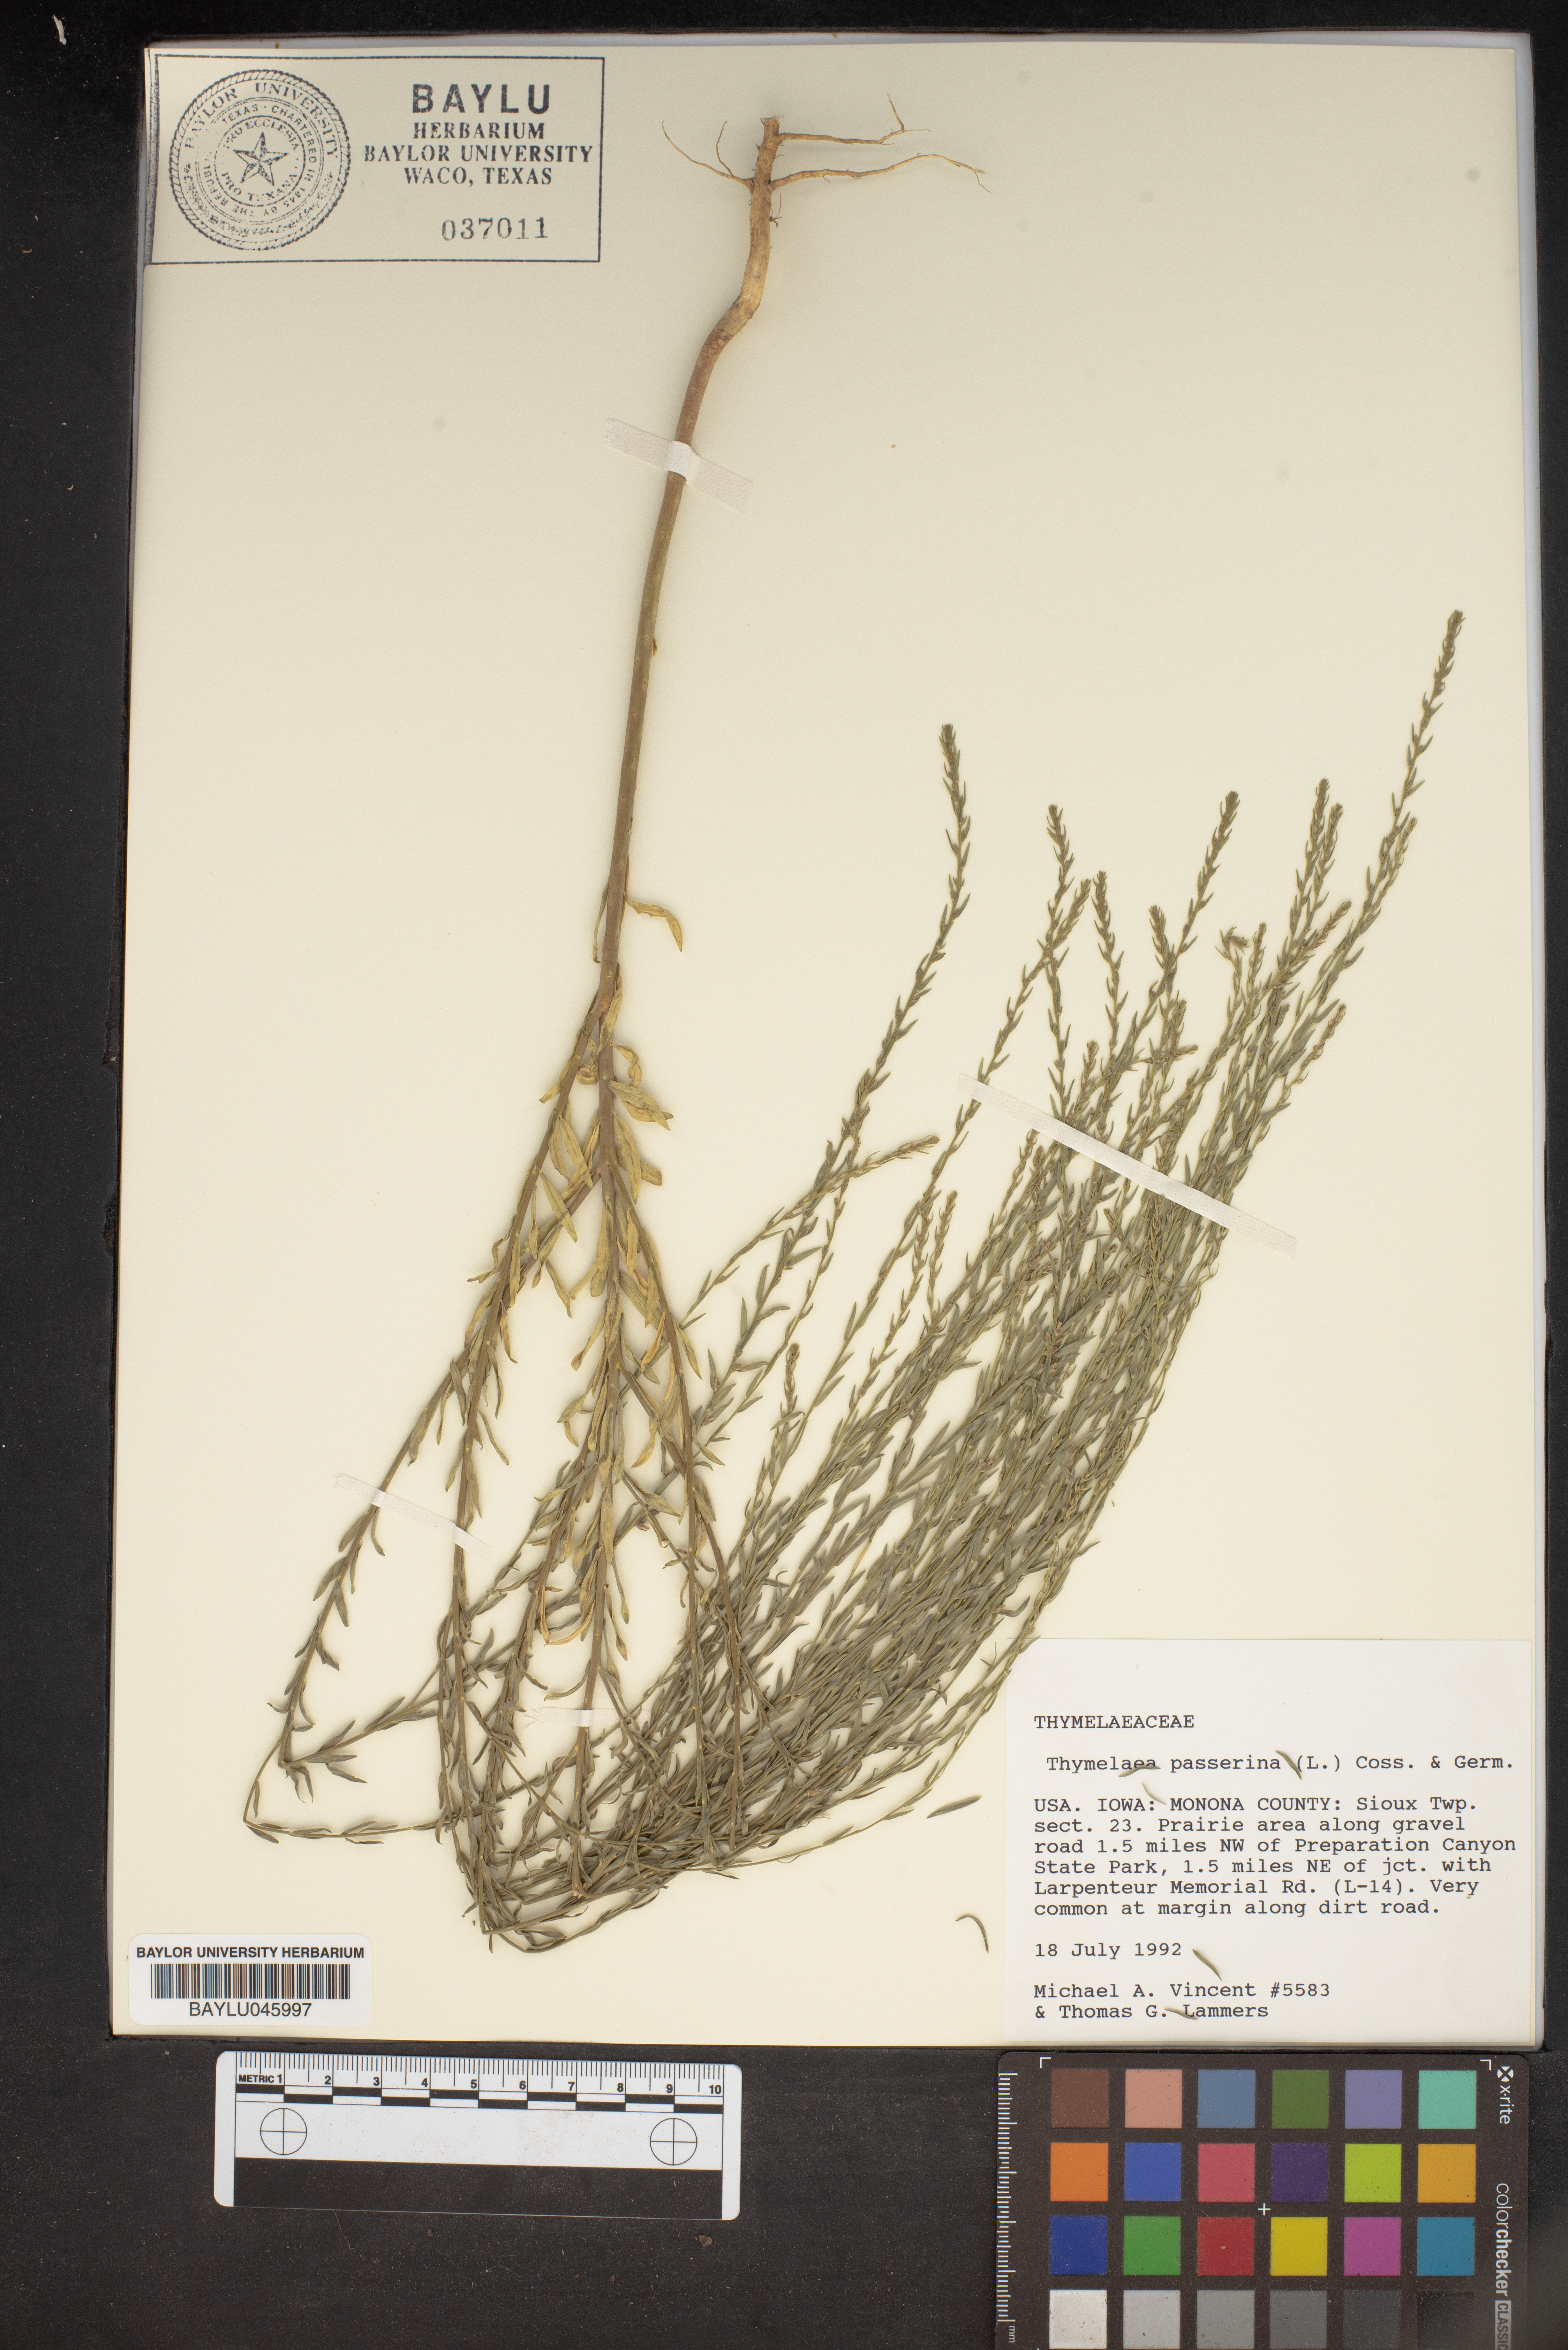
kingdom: Plantae
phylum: Tracheophyta
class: Magnoliopsida
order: Malvales
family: Thymelaeaceae
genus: Thymelaea
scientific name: Thymelaea passerina
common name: Annual thymelaea
